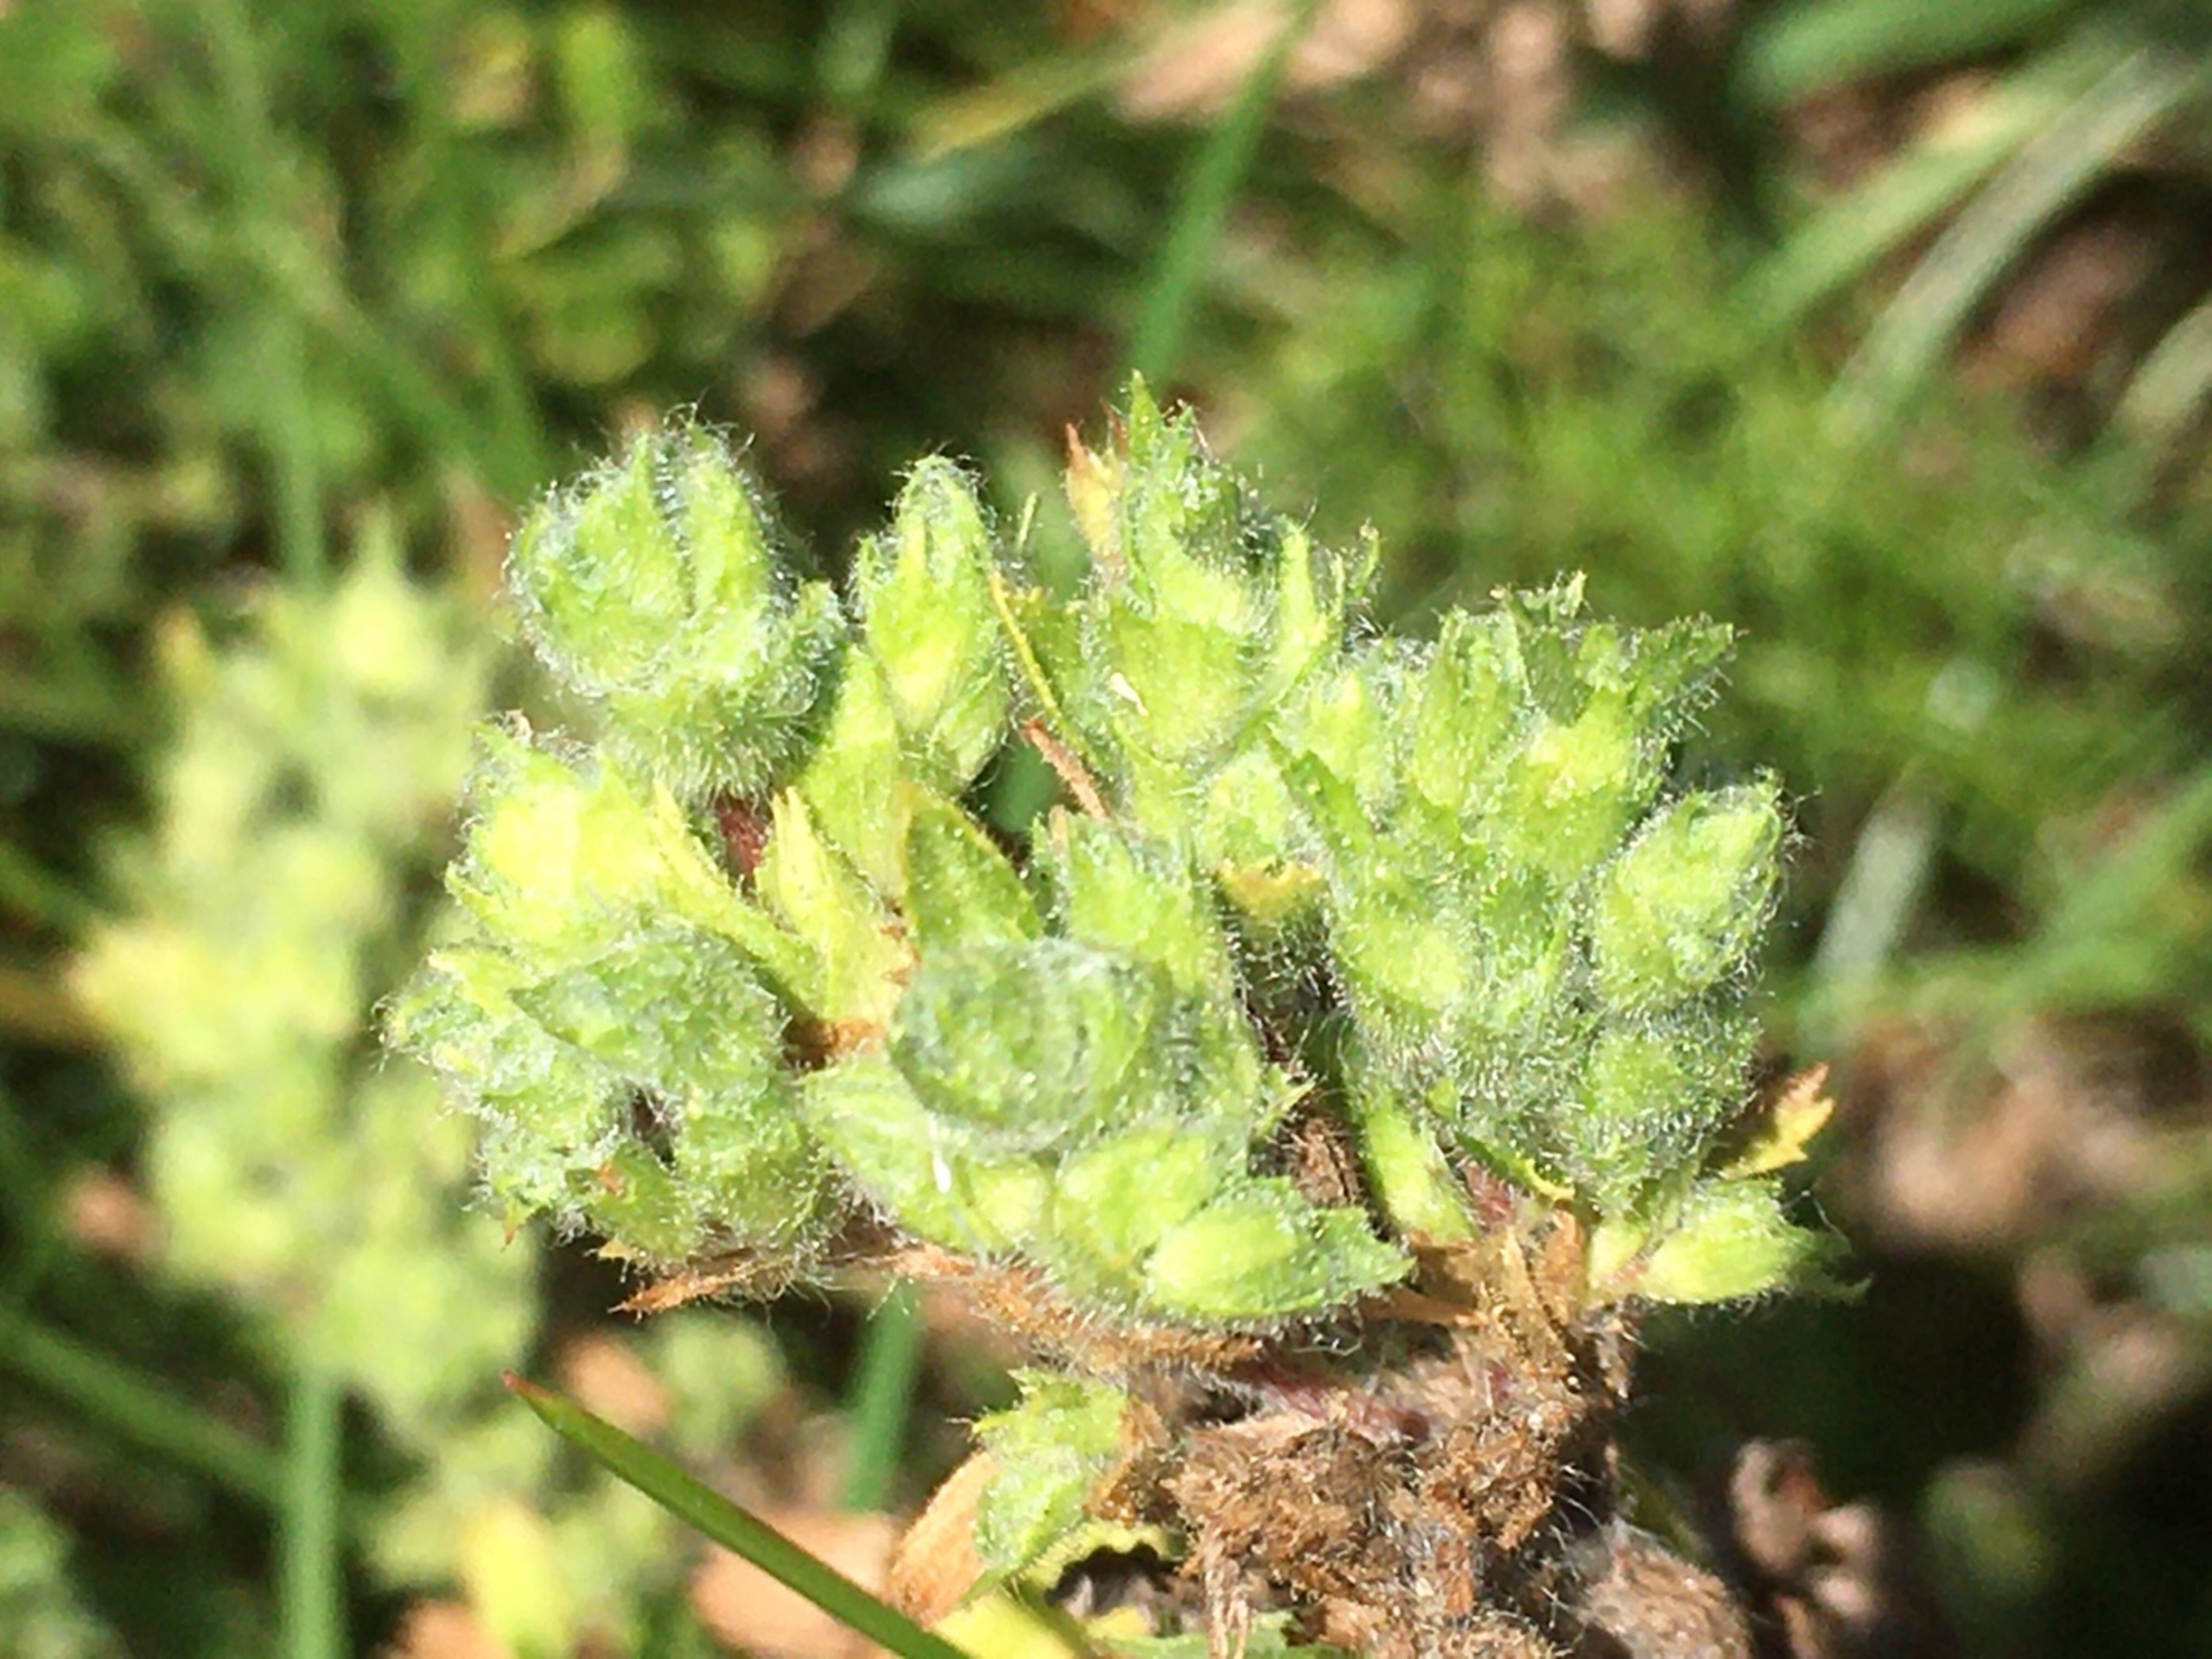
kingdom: Animalia
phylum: Arthropoda
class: Arachnida
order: Trombidiformes
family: Eriophyidae
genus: Aceria
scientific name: Aceria ononidis
